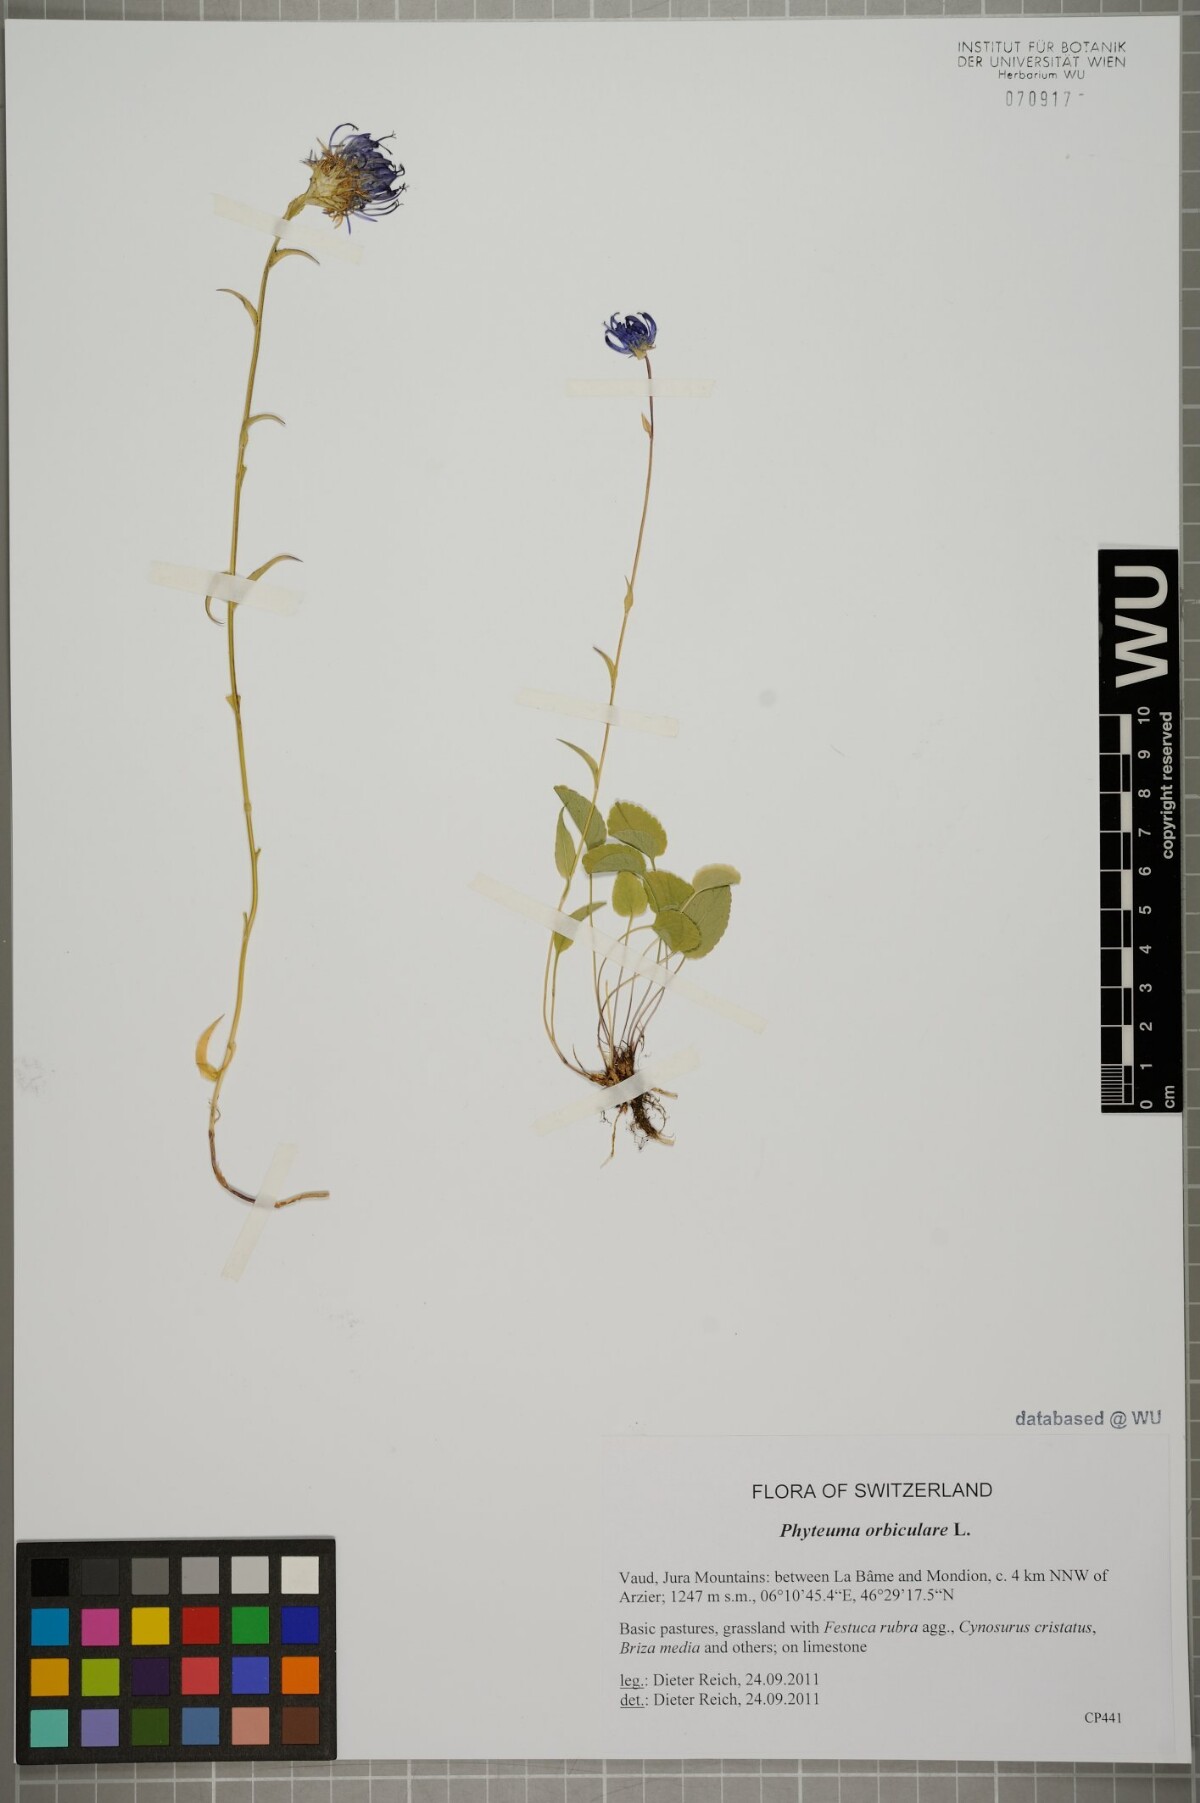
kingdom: Plantae
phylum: Tracheophyta
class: Magnoliopsida
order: Asterales
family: Campanulaceae
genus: Phyteuma
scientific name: Phyteuma orbiculare
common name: Round-headed rampion
